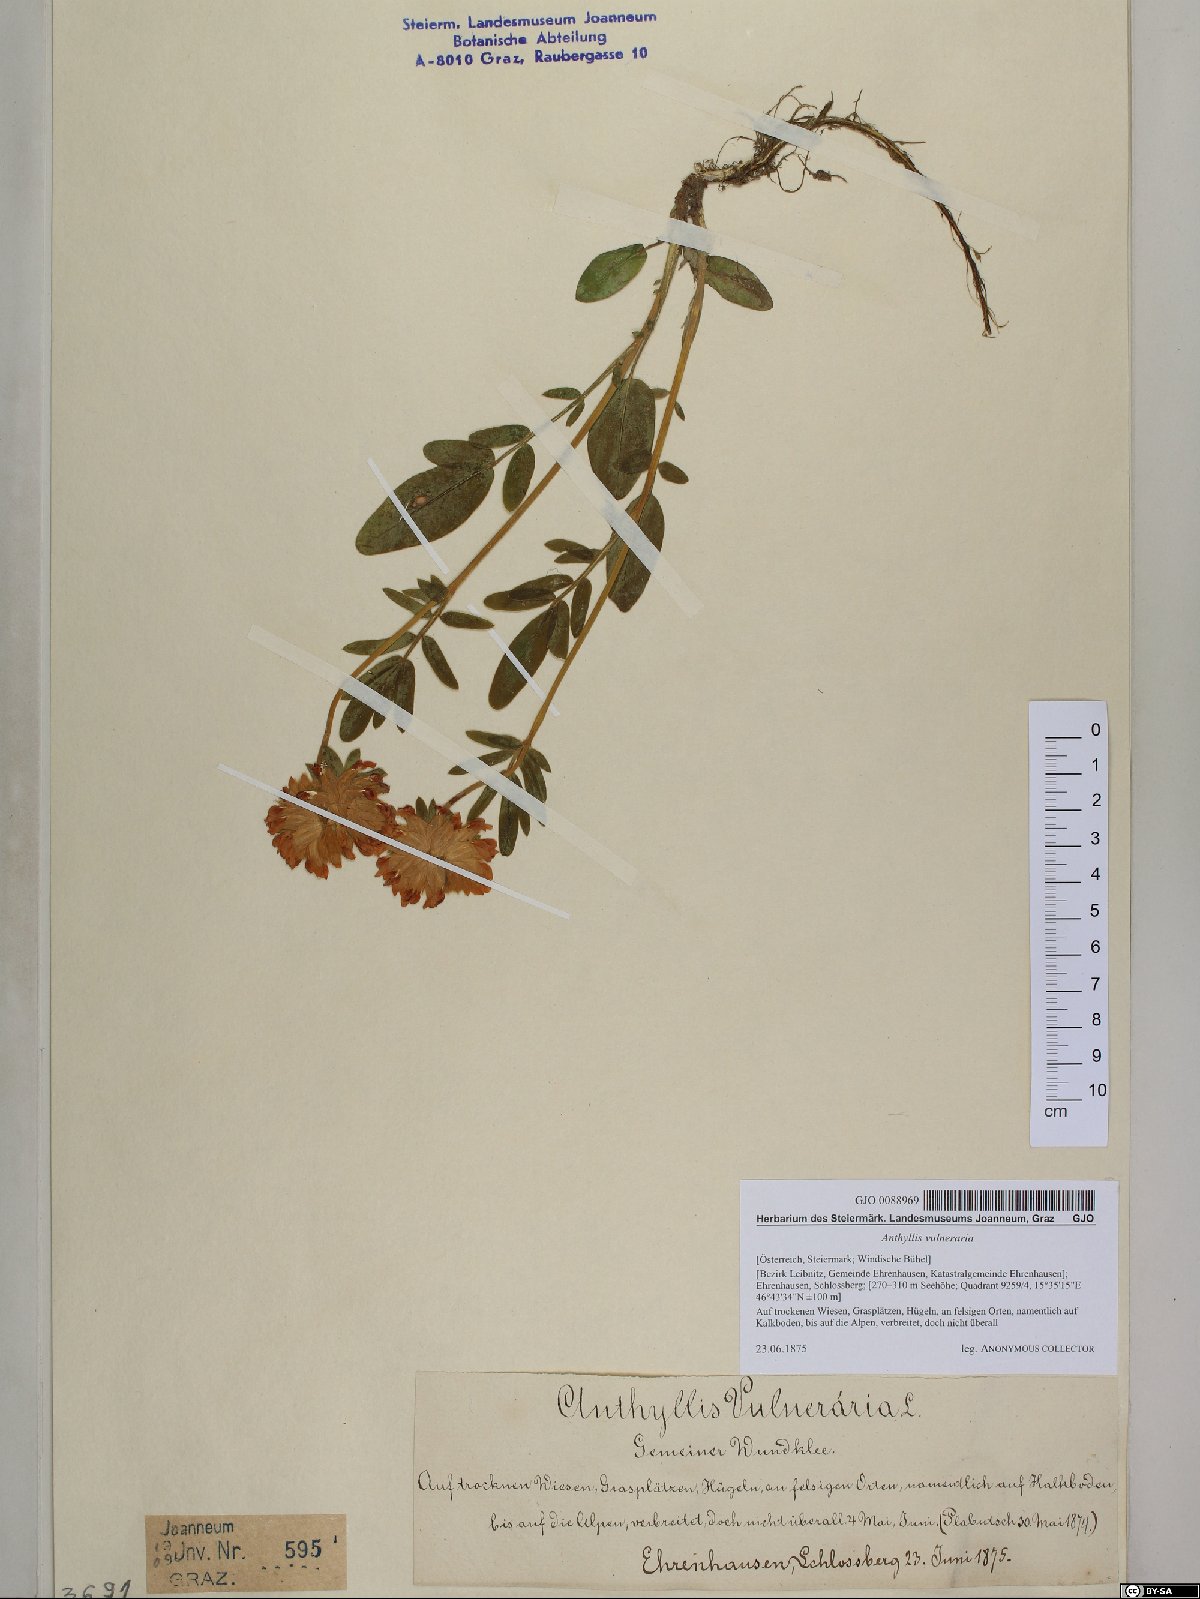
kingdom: Plantae
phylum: Tracheophyta
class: Magnoliopsida
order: Fabales
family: Fabaceae
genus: Anthyllis
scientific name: Anthyllis vulneraria
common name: Kidney vetch
